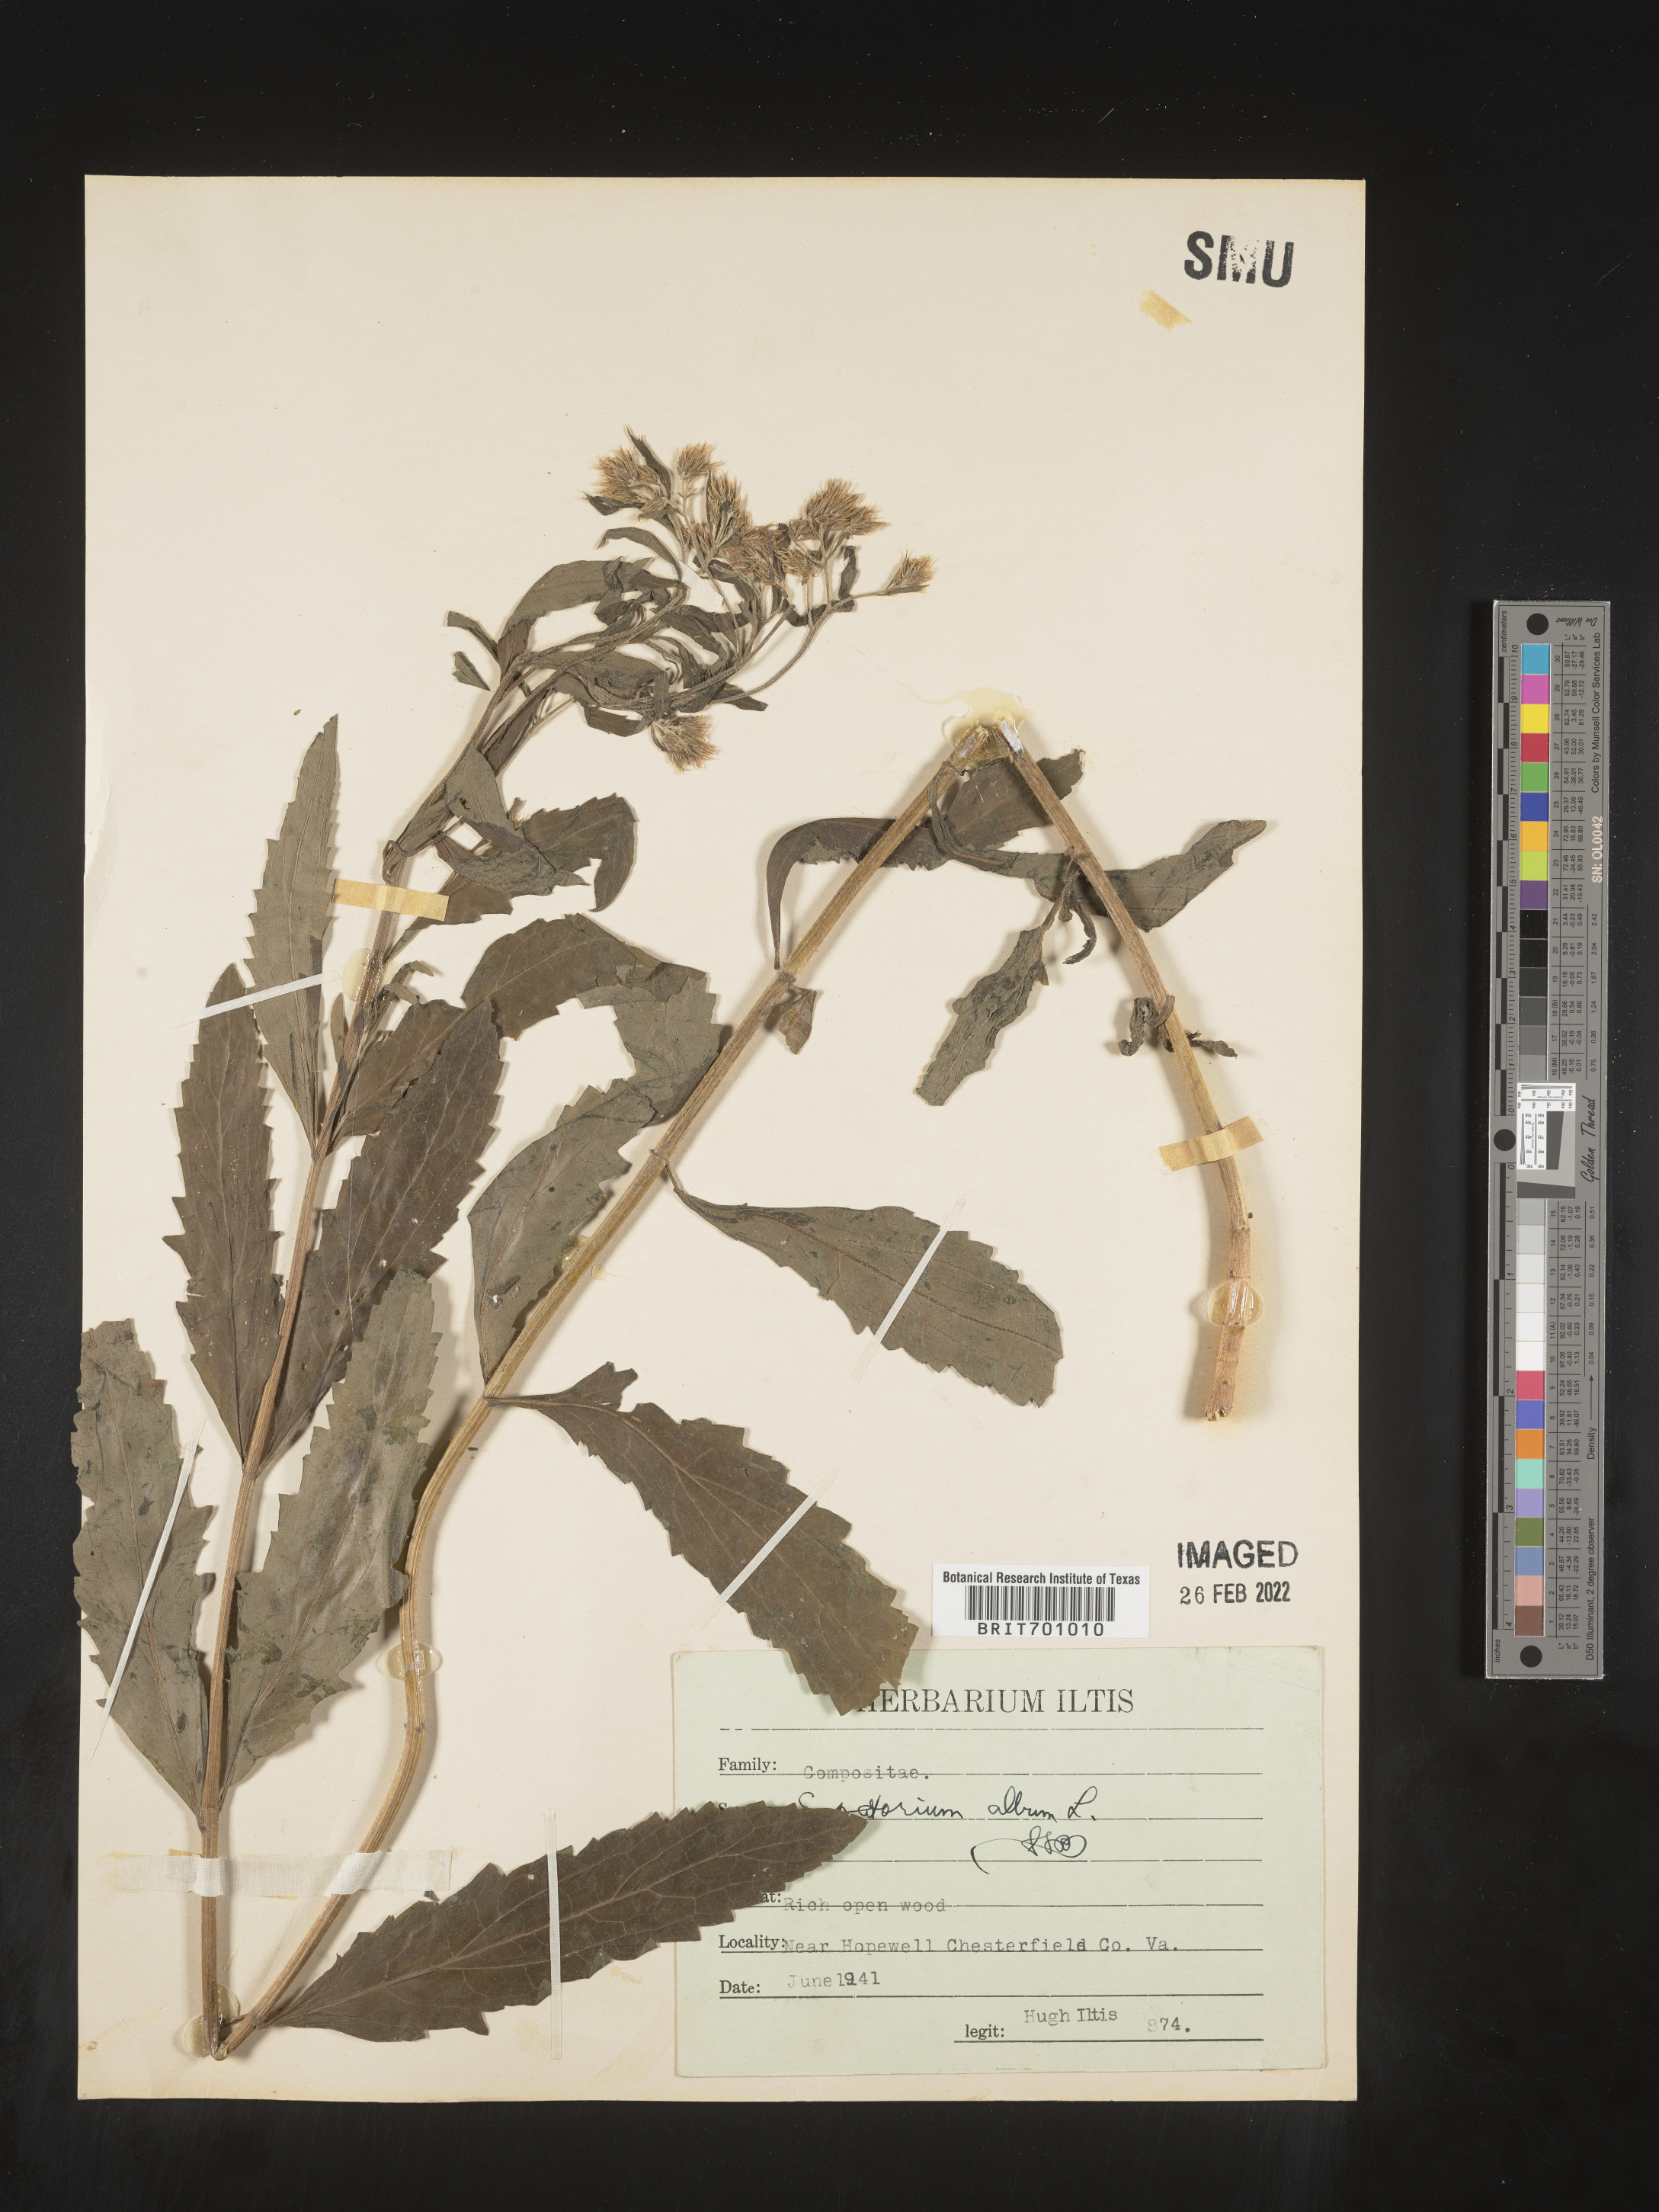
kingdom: Plantae
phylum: Tracheophyta
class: Magnoliopsida
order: Asterales
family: Asteraceae
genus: Eupatorium
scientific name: Eupatorium album
